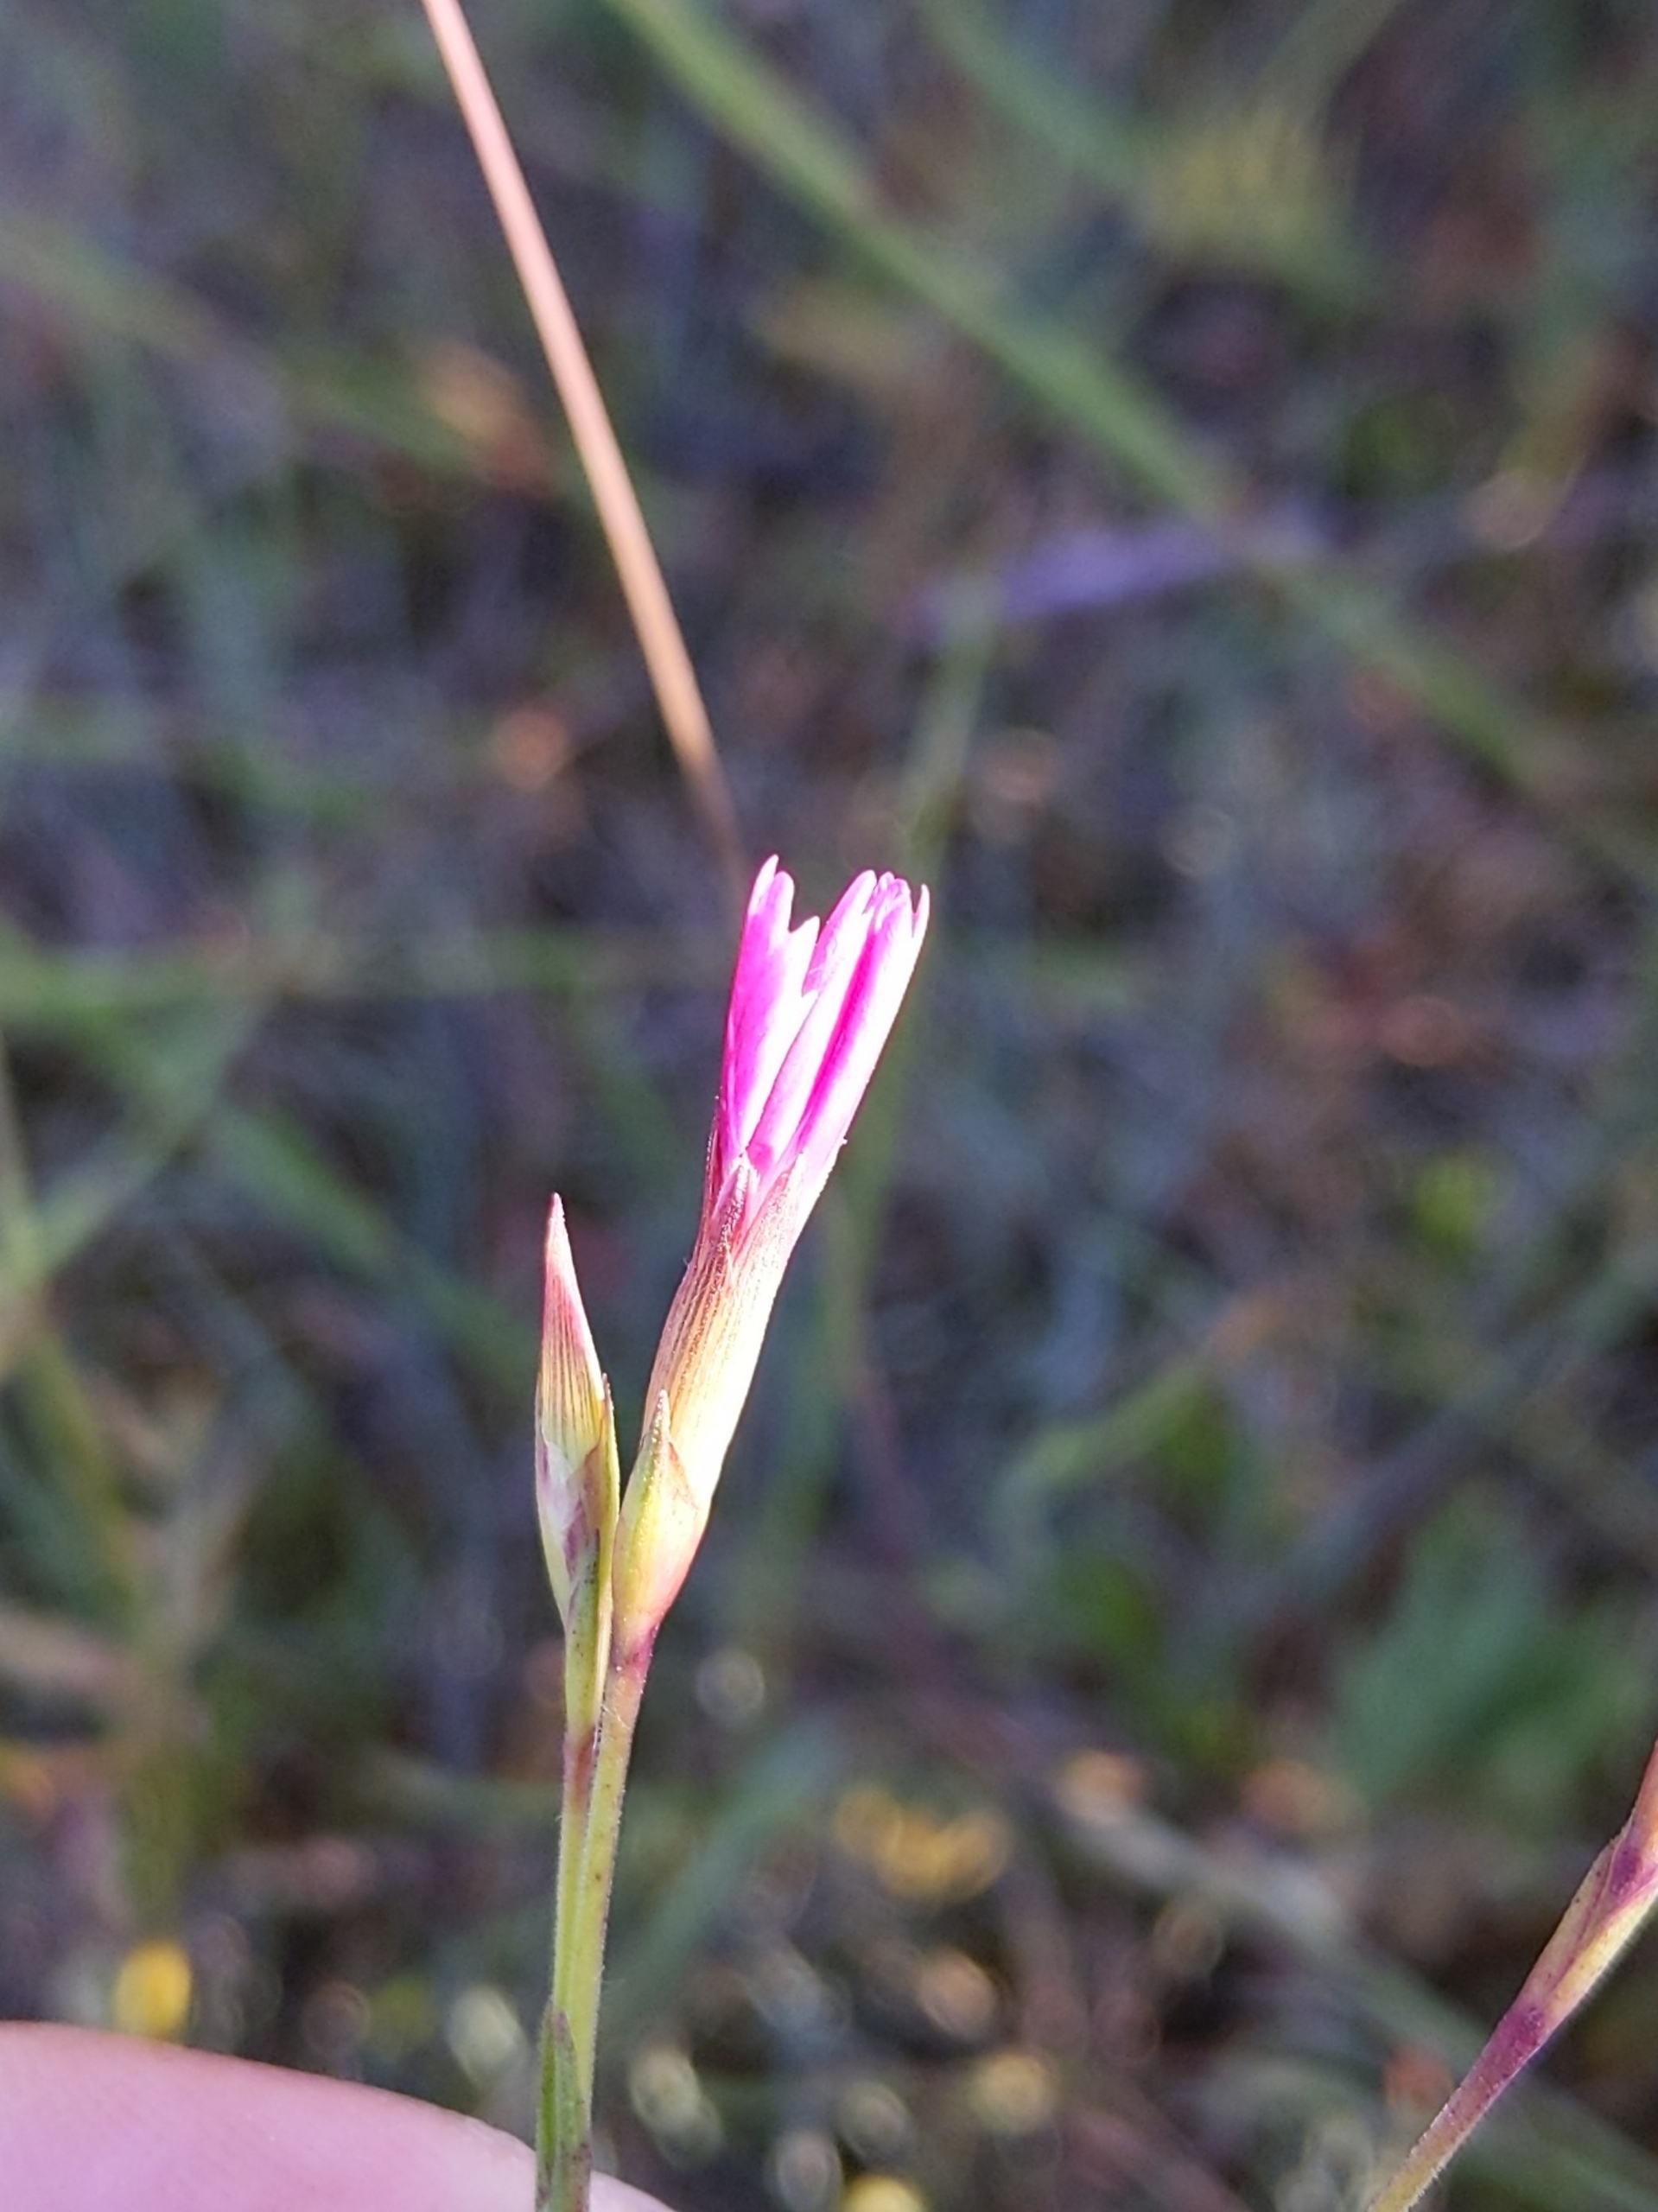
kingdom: Plantae
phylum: Tracheophyta
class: Magnoliopsida
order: Caryophyllales
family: Caryophyllaceae
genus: Dianthus
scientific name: Dianthus deltoides
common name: Bakke-nellike
